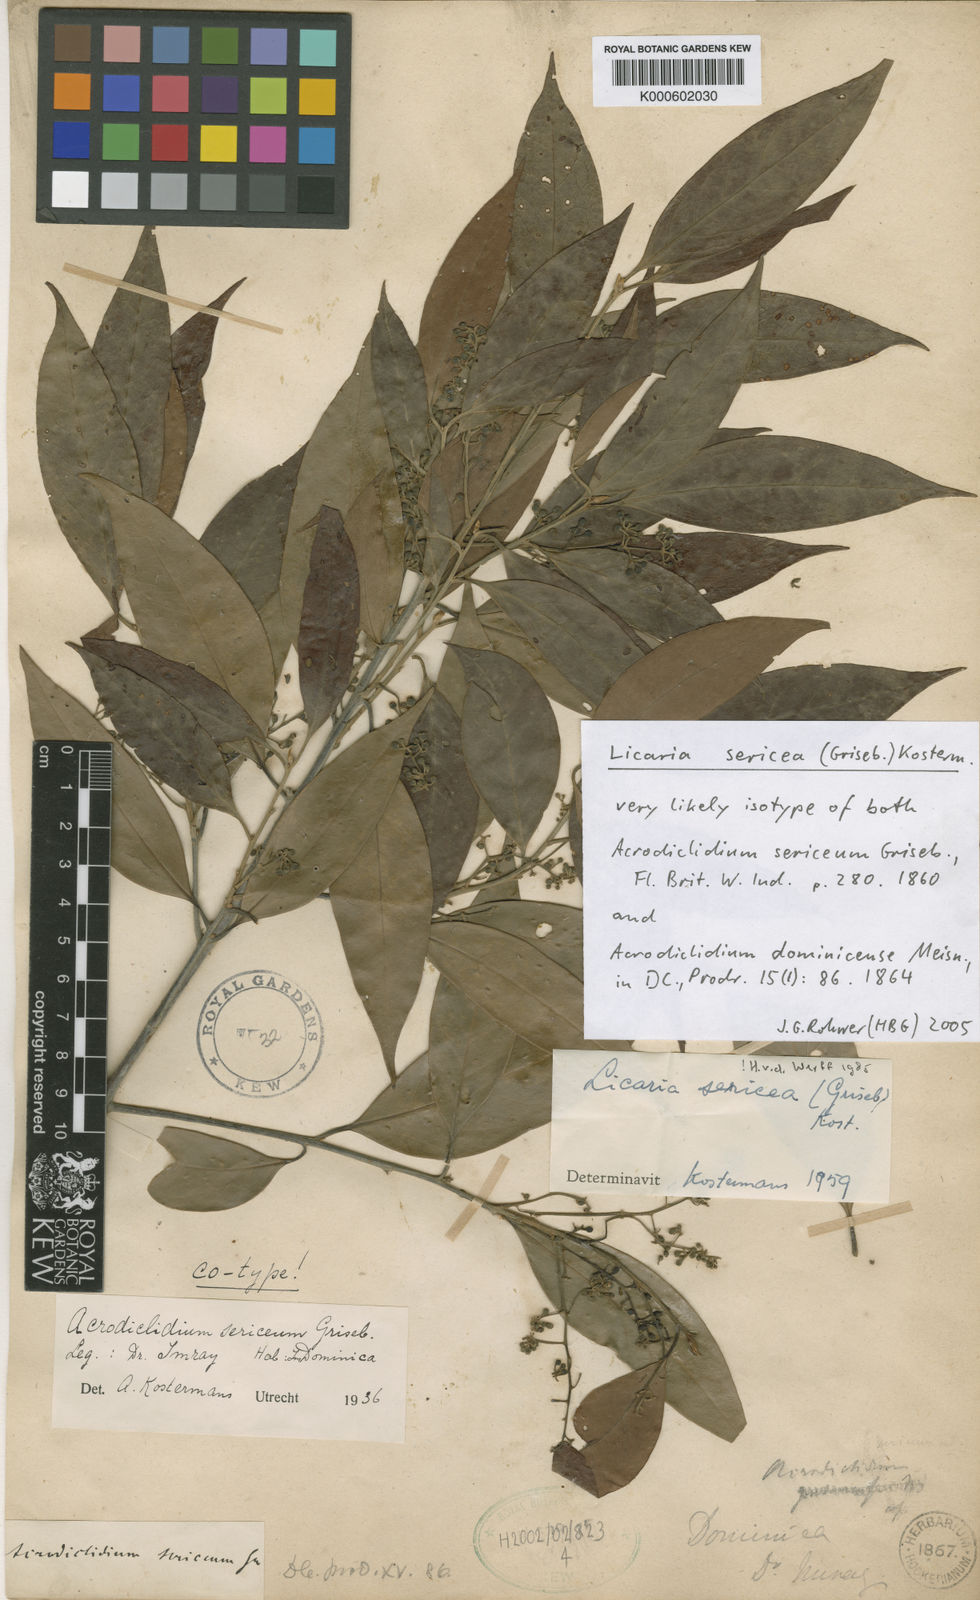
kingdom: Plantae
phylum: Tracheophyta
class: Magnoliopsida
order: Laurales
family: Lauraceae
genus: Licaria
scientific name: Licaria sericea
